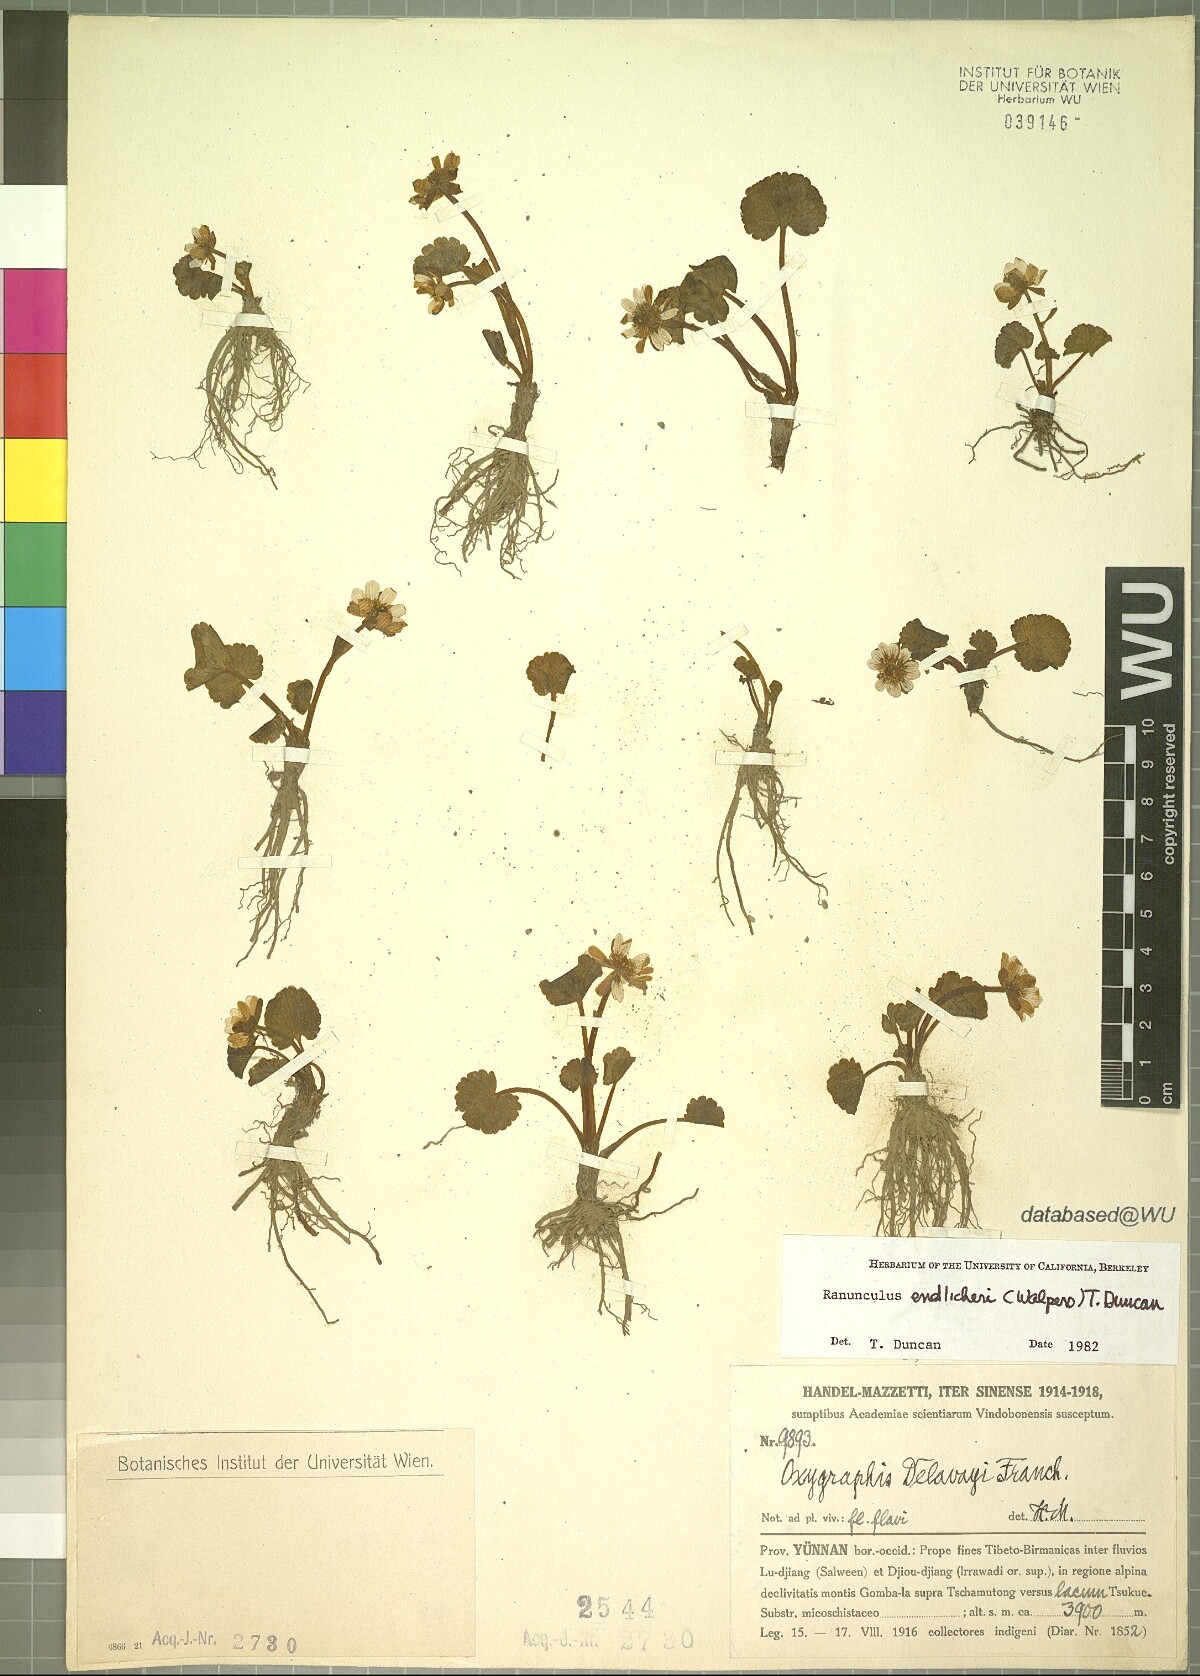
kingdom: Plantae
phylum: Tracheophyta
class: Magnoliopsida
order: Ranunculales
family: Ranunculaceae
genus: Oxygraphis
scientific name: Oxygraphis delavayi
